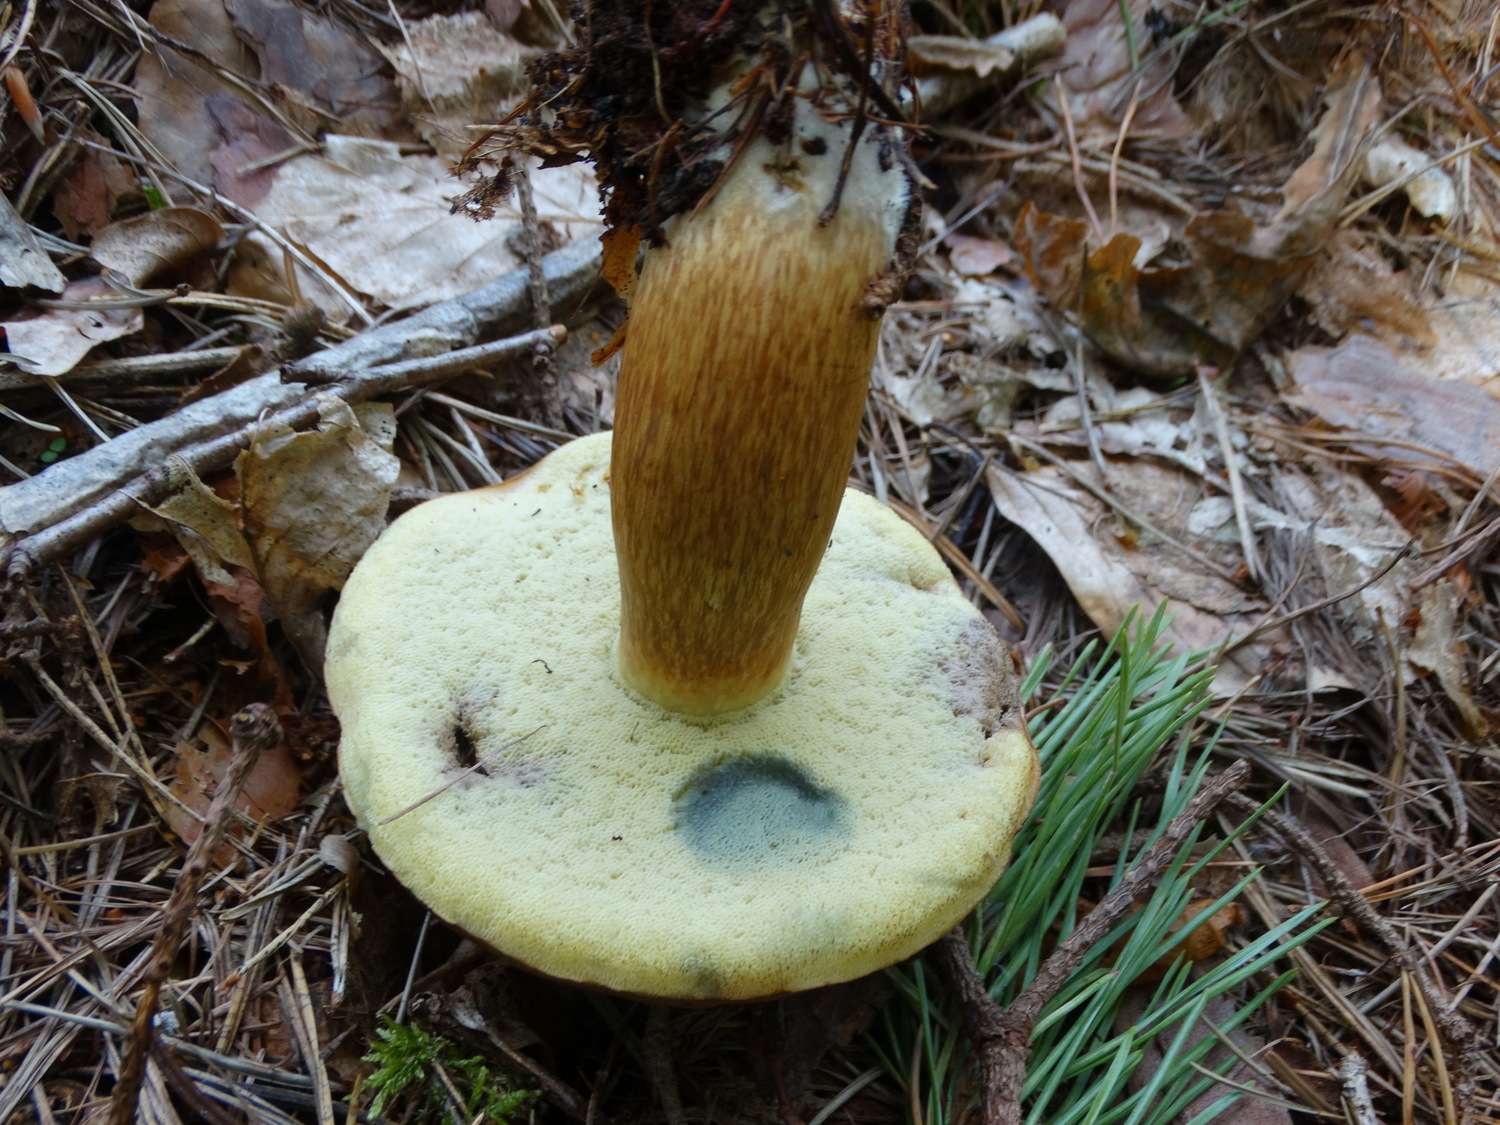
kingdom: Fungi
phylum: Basidiomycota
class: Agaricomycetes
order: Boletales
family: Boletaceae
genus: Imleria
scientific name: Imleria badia
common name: brunstokket rørhat
